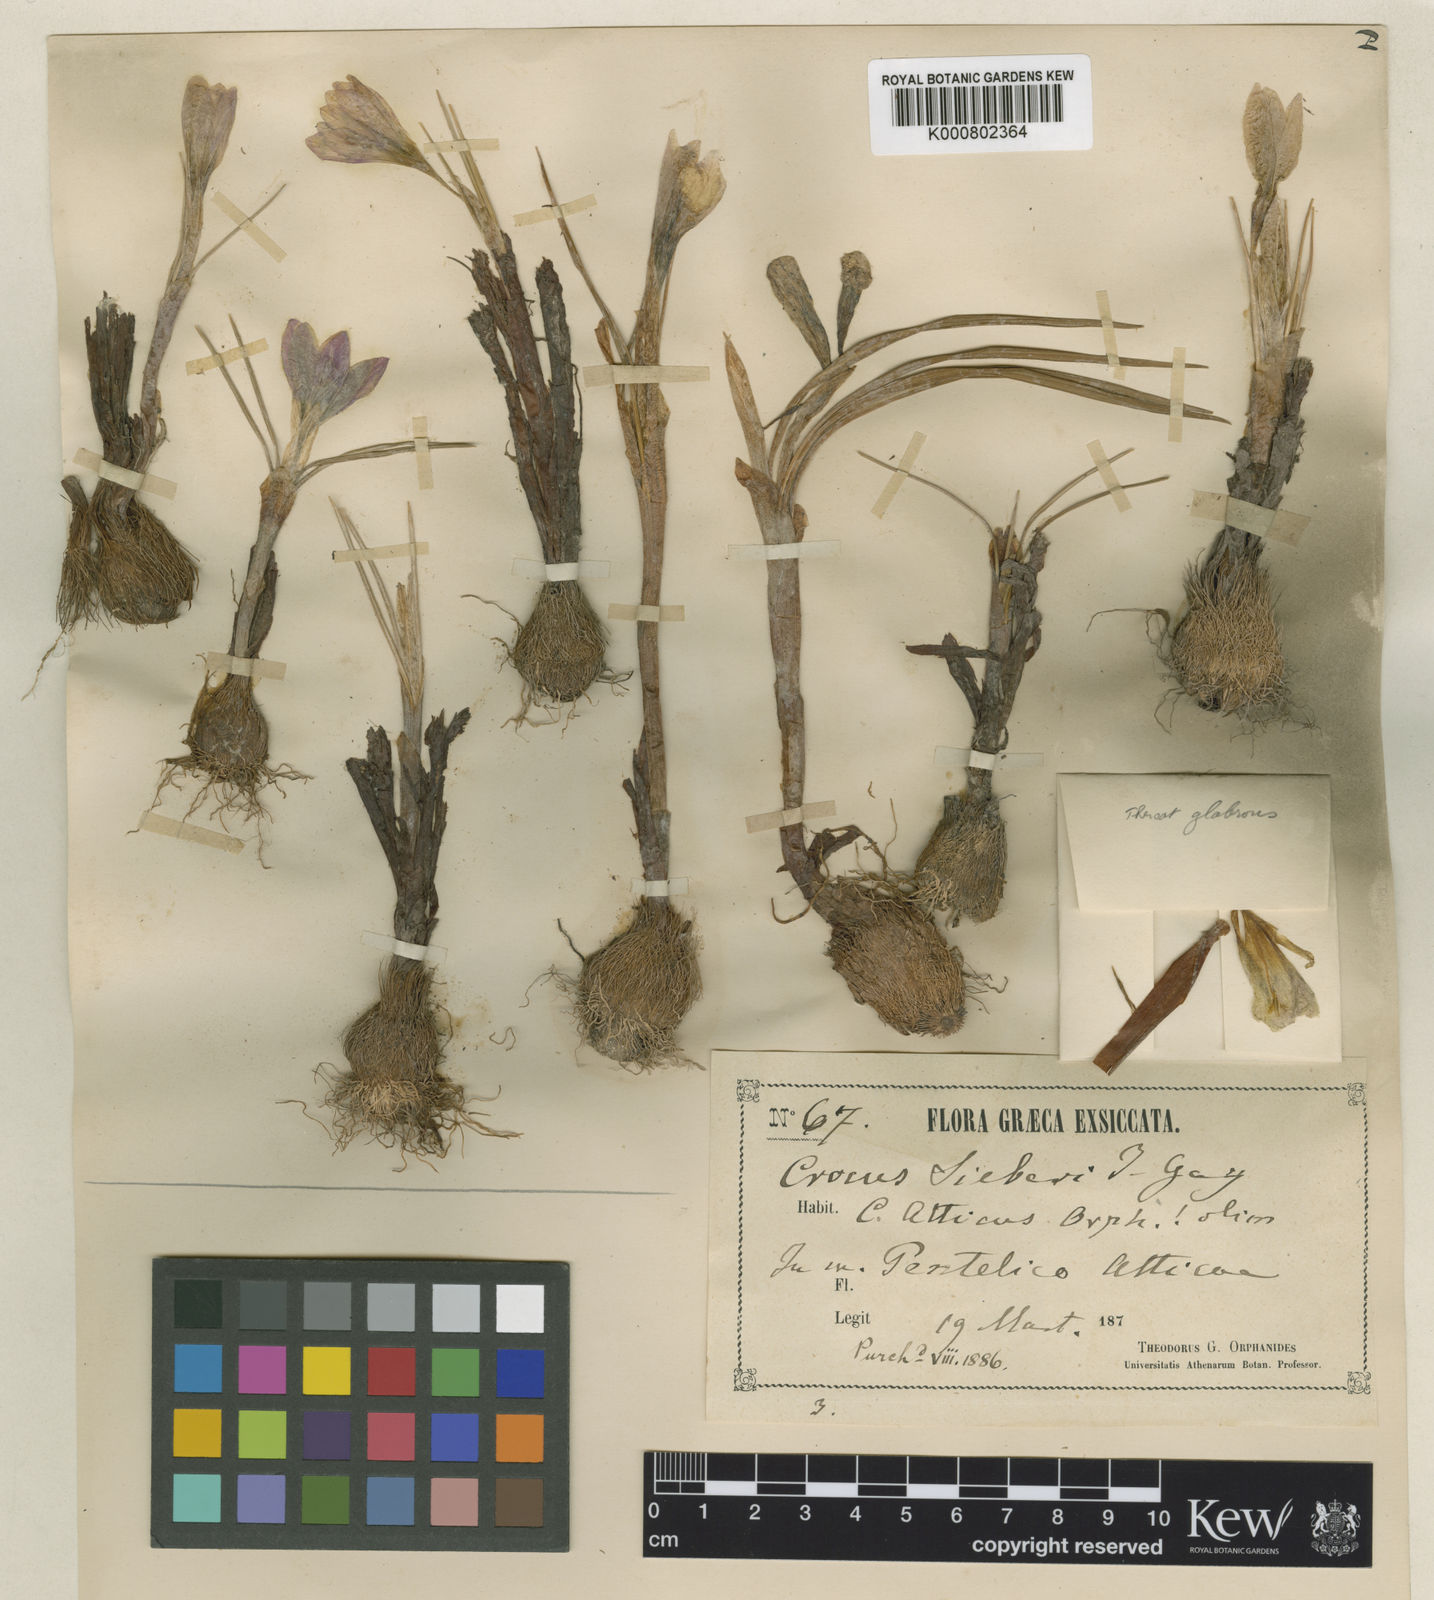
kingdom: Plantae
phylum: Tracheophyta
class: Liliopsida
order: Asparagales
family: Iridaceae
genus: Crocus
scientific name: Crocus atticus
